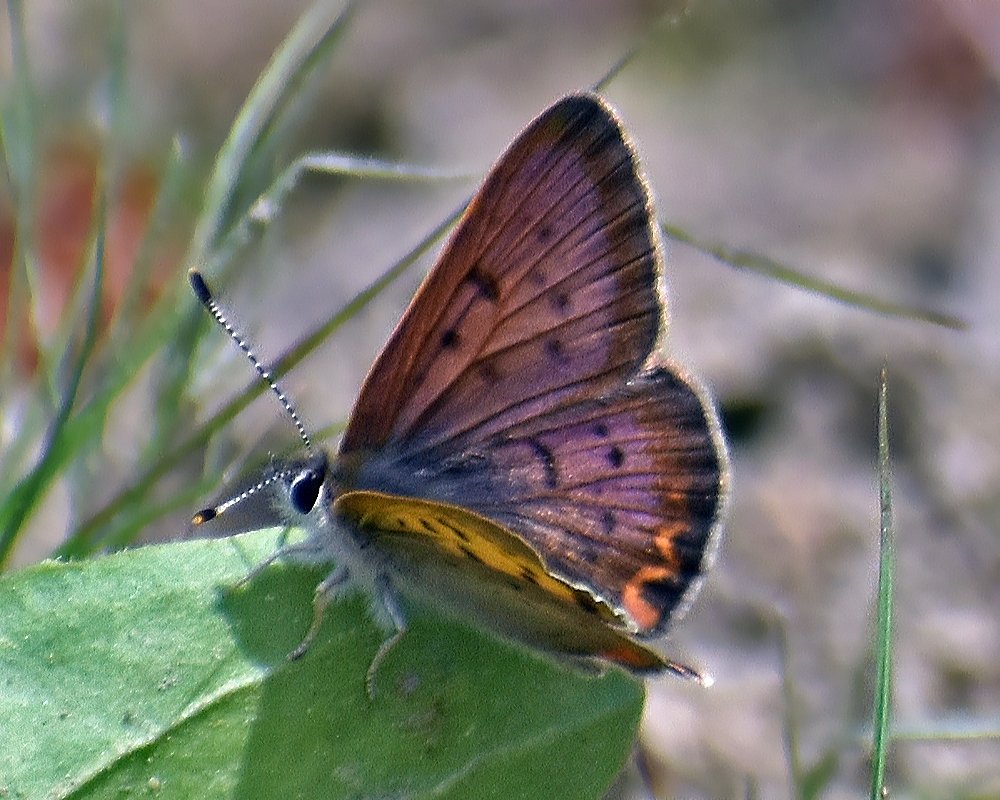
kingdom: Animalia
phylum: Arthropoda
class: Insecta
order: Lepidoptera
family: Sesiidae
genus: Sesia
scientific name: Sesia Lycaena helloides
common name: Purplish Copper
